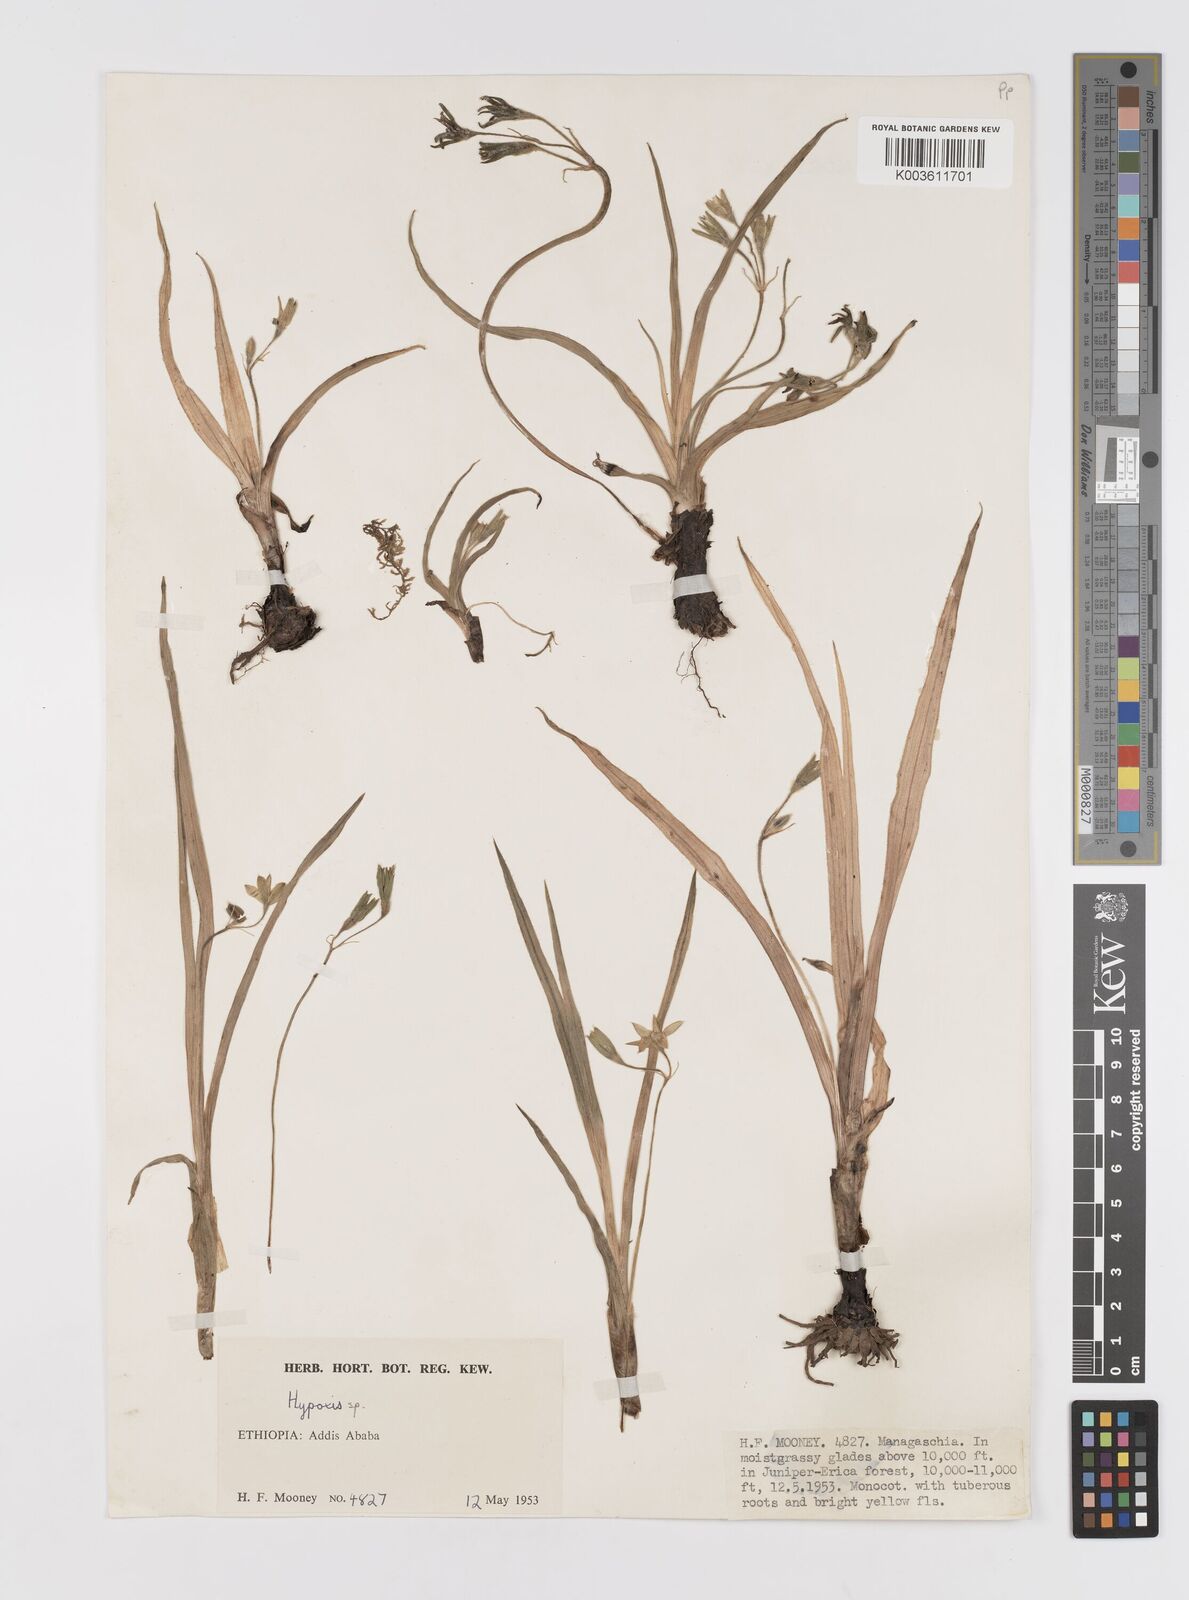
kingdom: Plantae
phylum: Tracheophyta
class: Liliopsida
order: Asparagales
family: Hypoxidaceae
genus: Hypoxis
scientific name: Hypoxis
